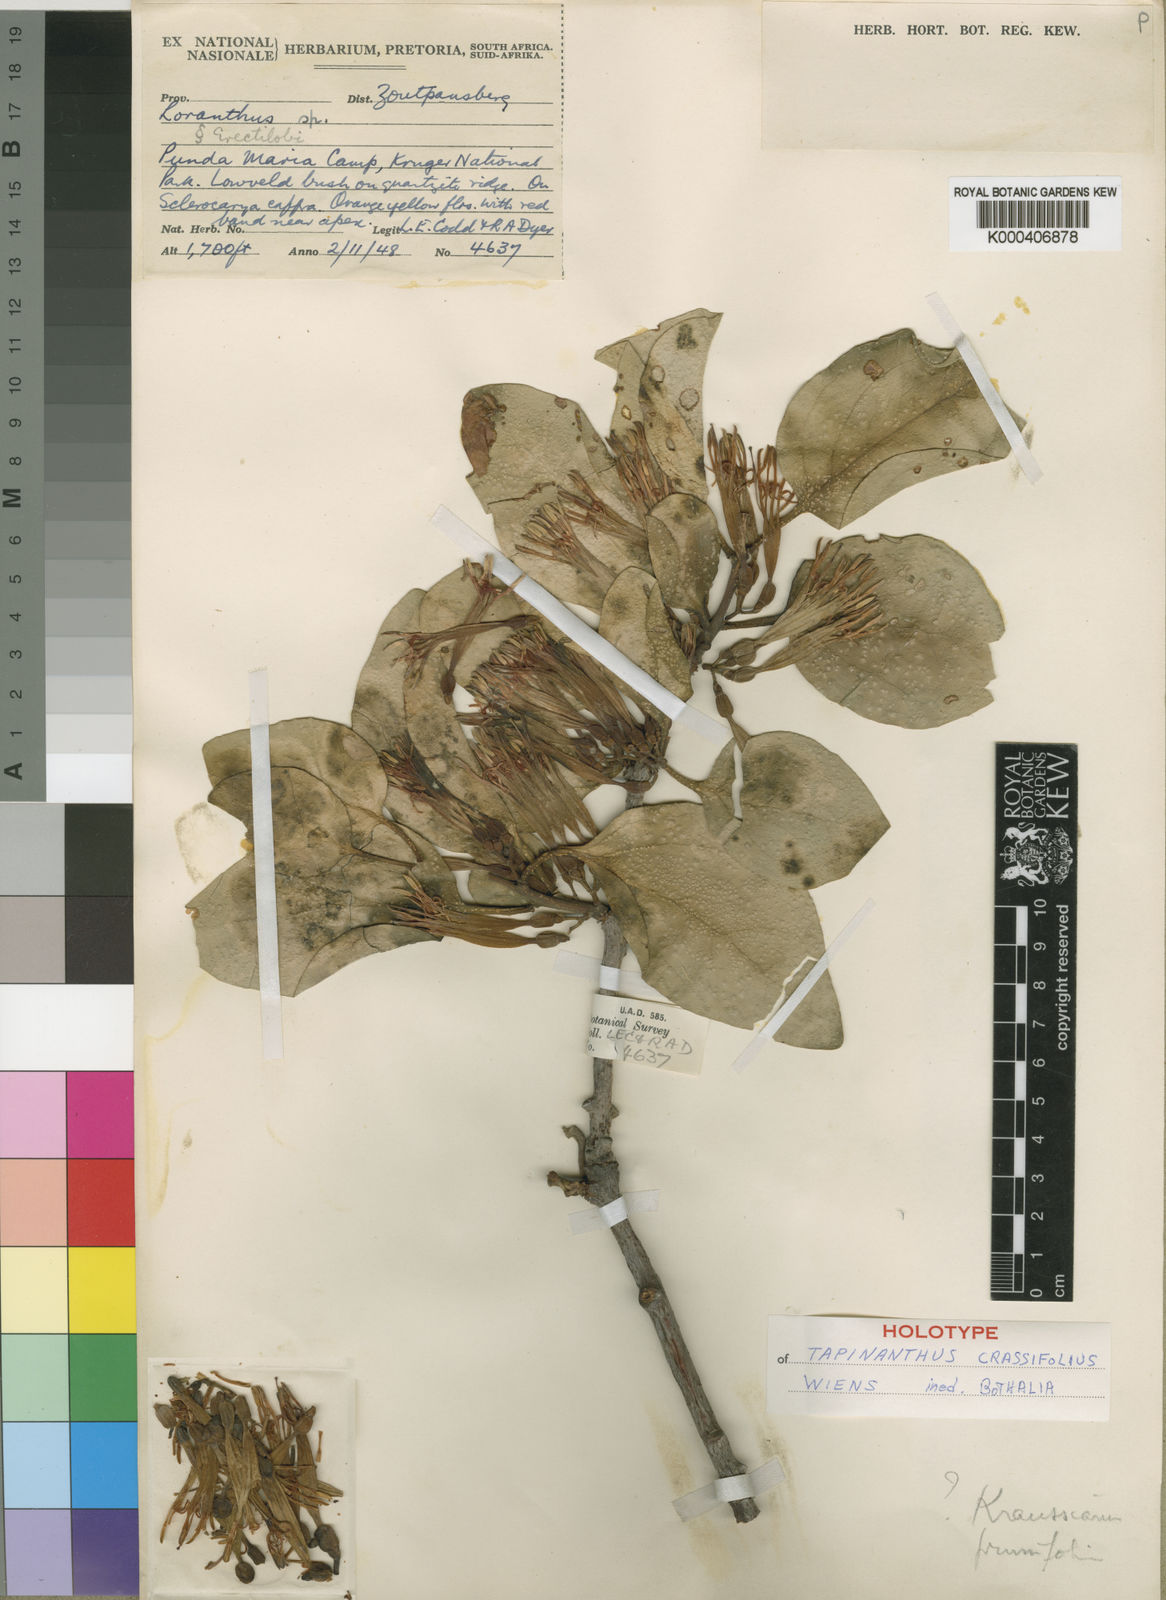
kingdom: Plantae
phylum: Tracheophyta
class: Magnoliopsida
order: Santalales
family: Loranthaceae
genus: Agelanthus
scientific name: Agelanthus crassifolius
